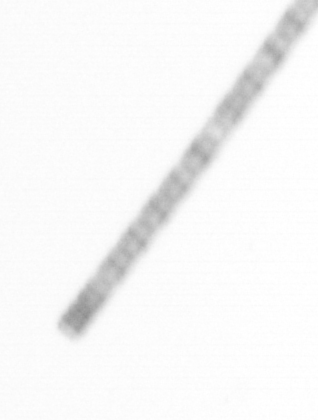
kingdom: Chromista
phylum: Ochrophyta
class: Bacillariophyceae
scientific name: Bacillariophyceae
